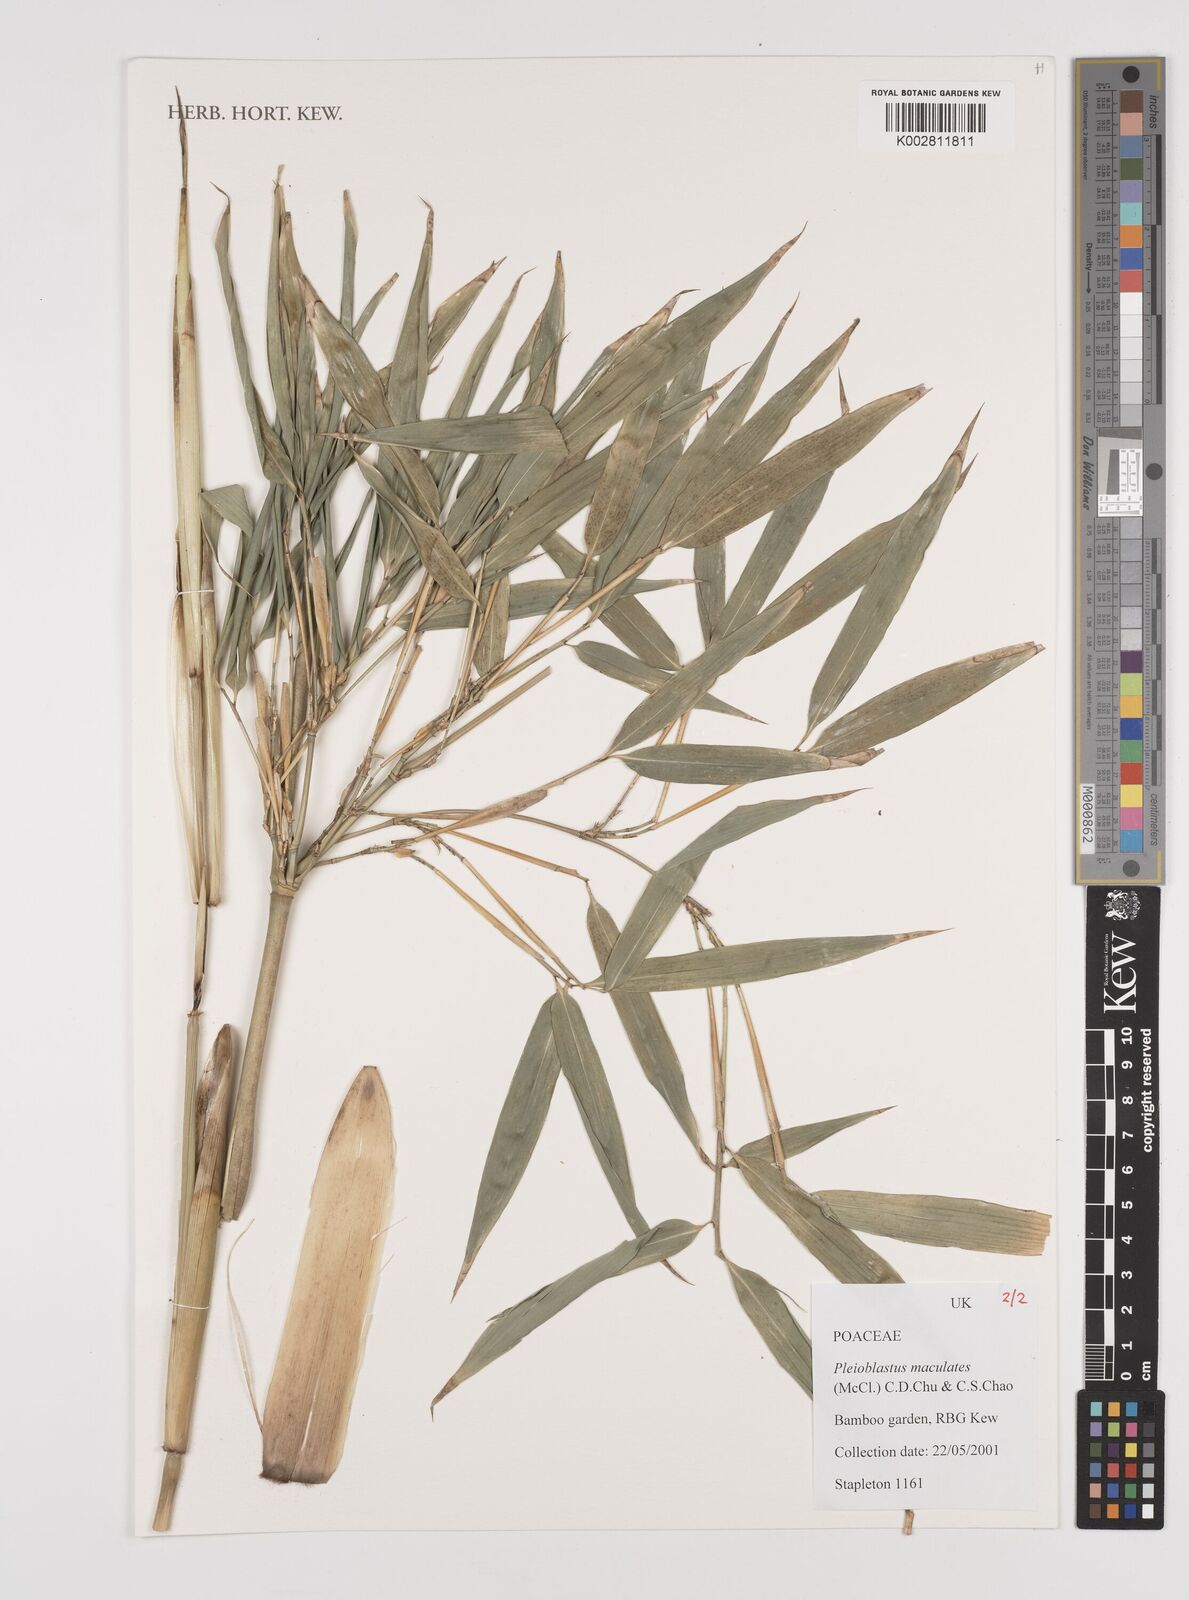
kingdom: Plantae
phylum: Tracheophyta
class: Liliopsida
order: Poales
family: Poaceae
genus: Aulonemia
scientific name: Aulonemia parviflora
